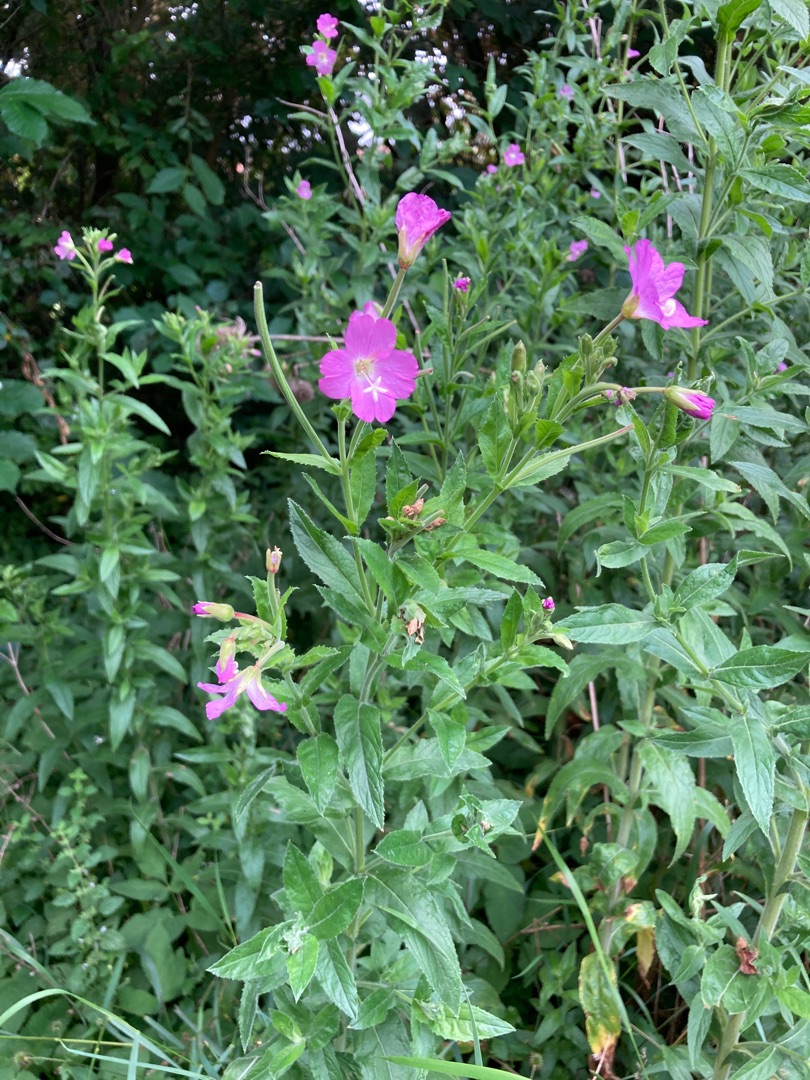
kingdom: Plantae
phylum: Tracheophyta
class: Magnoliopsida
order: Myrtales
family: Onagraceae
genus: Epilobium
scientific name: Epilobium hirsutum
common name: Lådden dueurt
